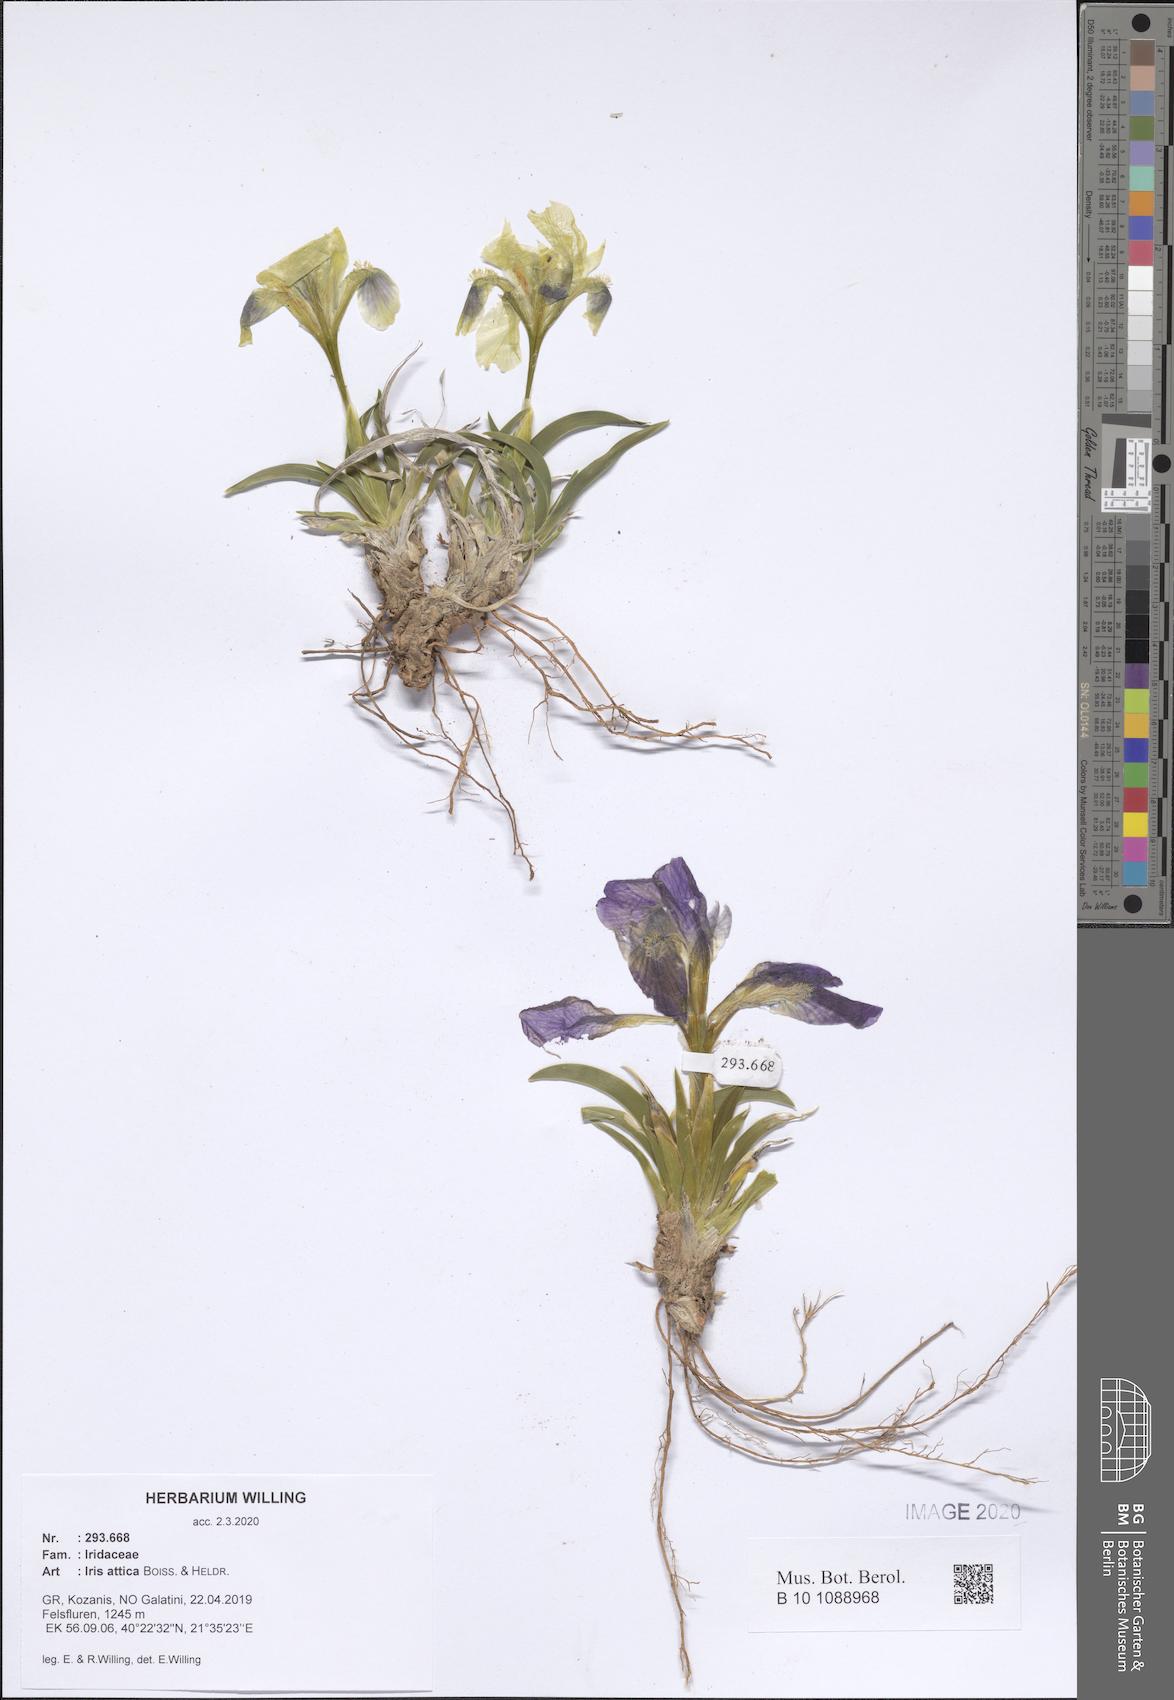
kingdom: Plantae
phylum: Tracheophyta
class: Liliopsida
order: Asparagales
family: Iridaceae
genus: Iris
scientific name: Iris pumila
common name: Dwarf iris
